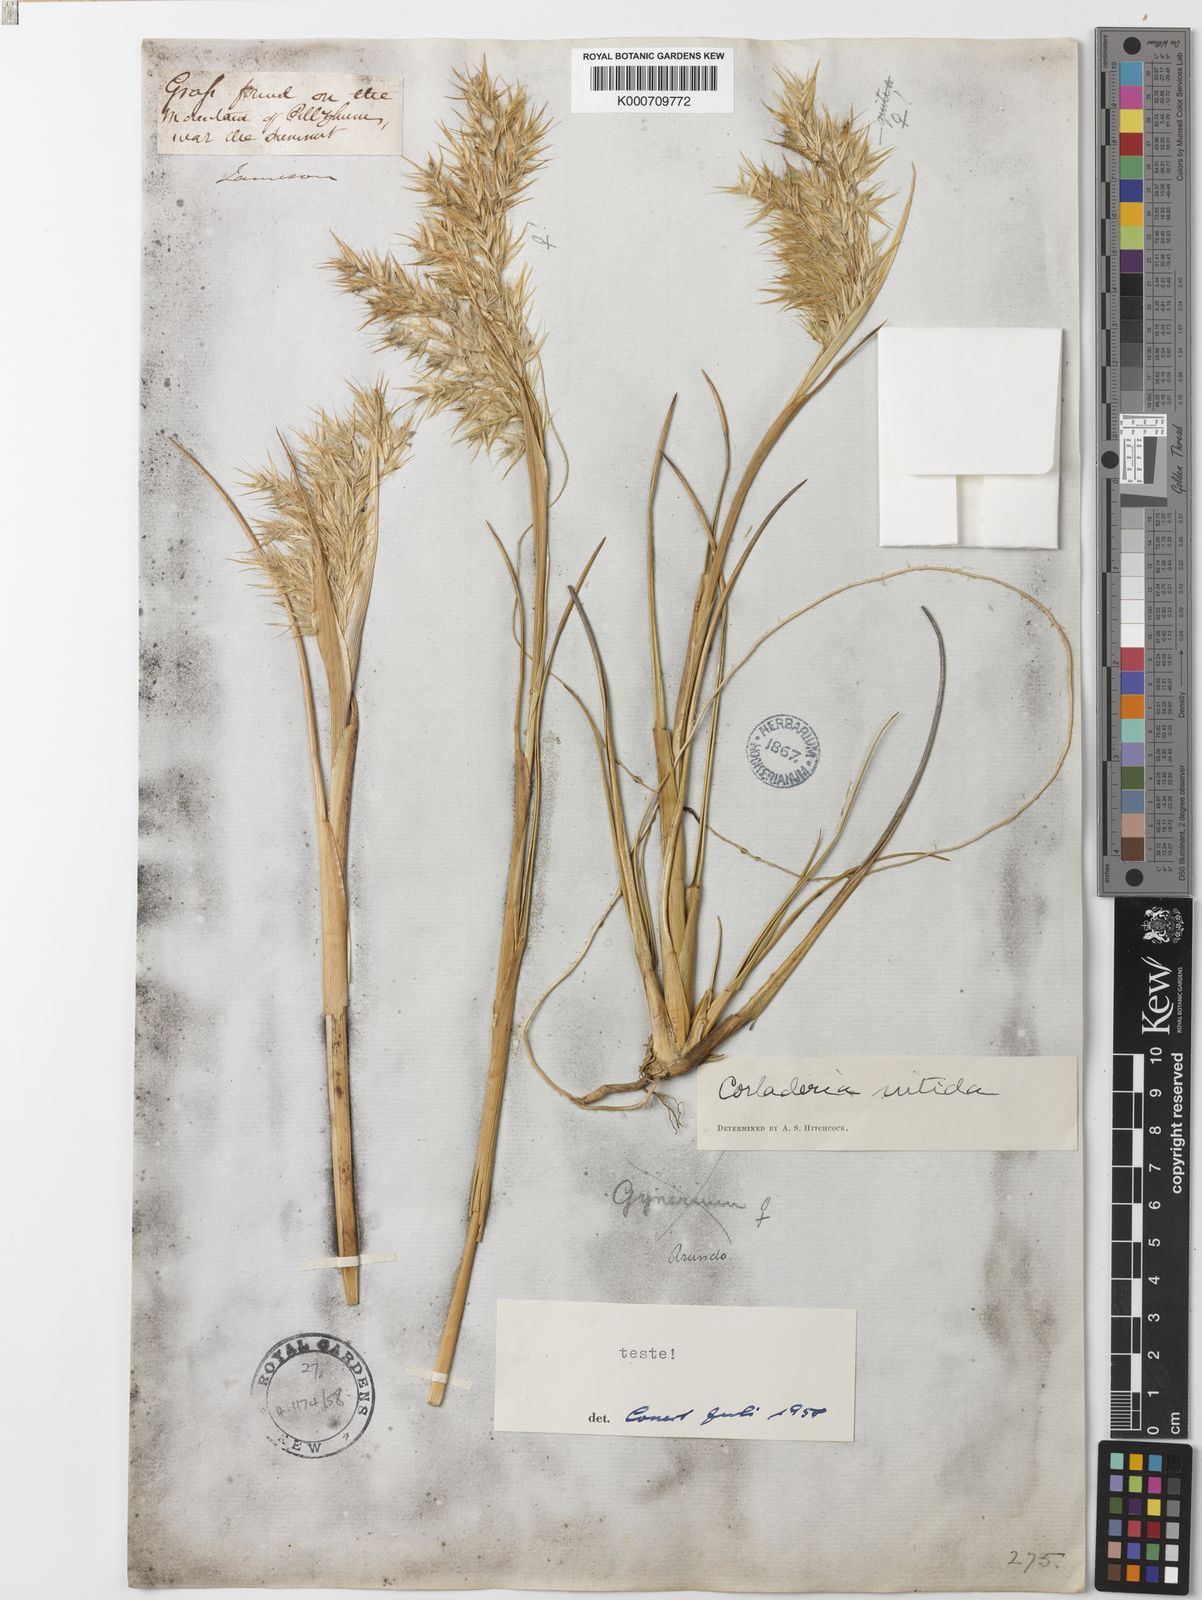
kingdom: Plantae
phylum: Tracheophyta
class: Liliopsida
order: Poales
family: Poaceae
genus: Cortaderia
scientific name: Cortaderia nitida
